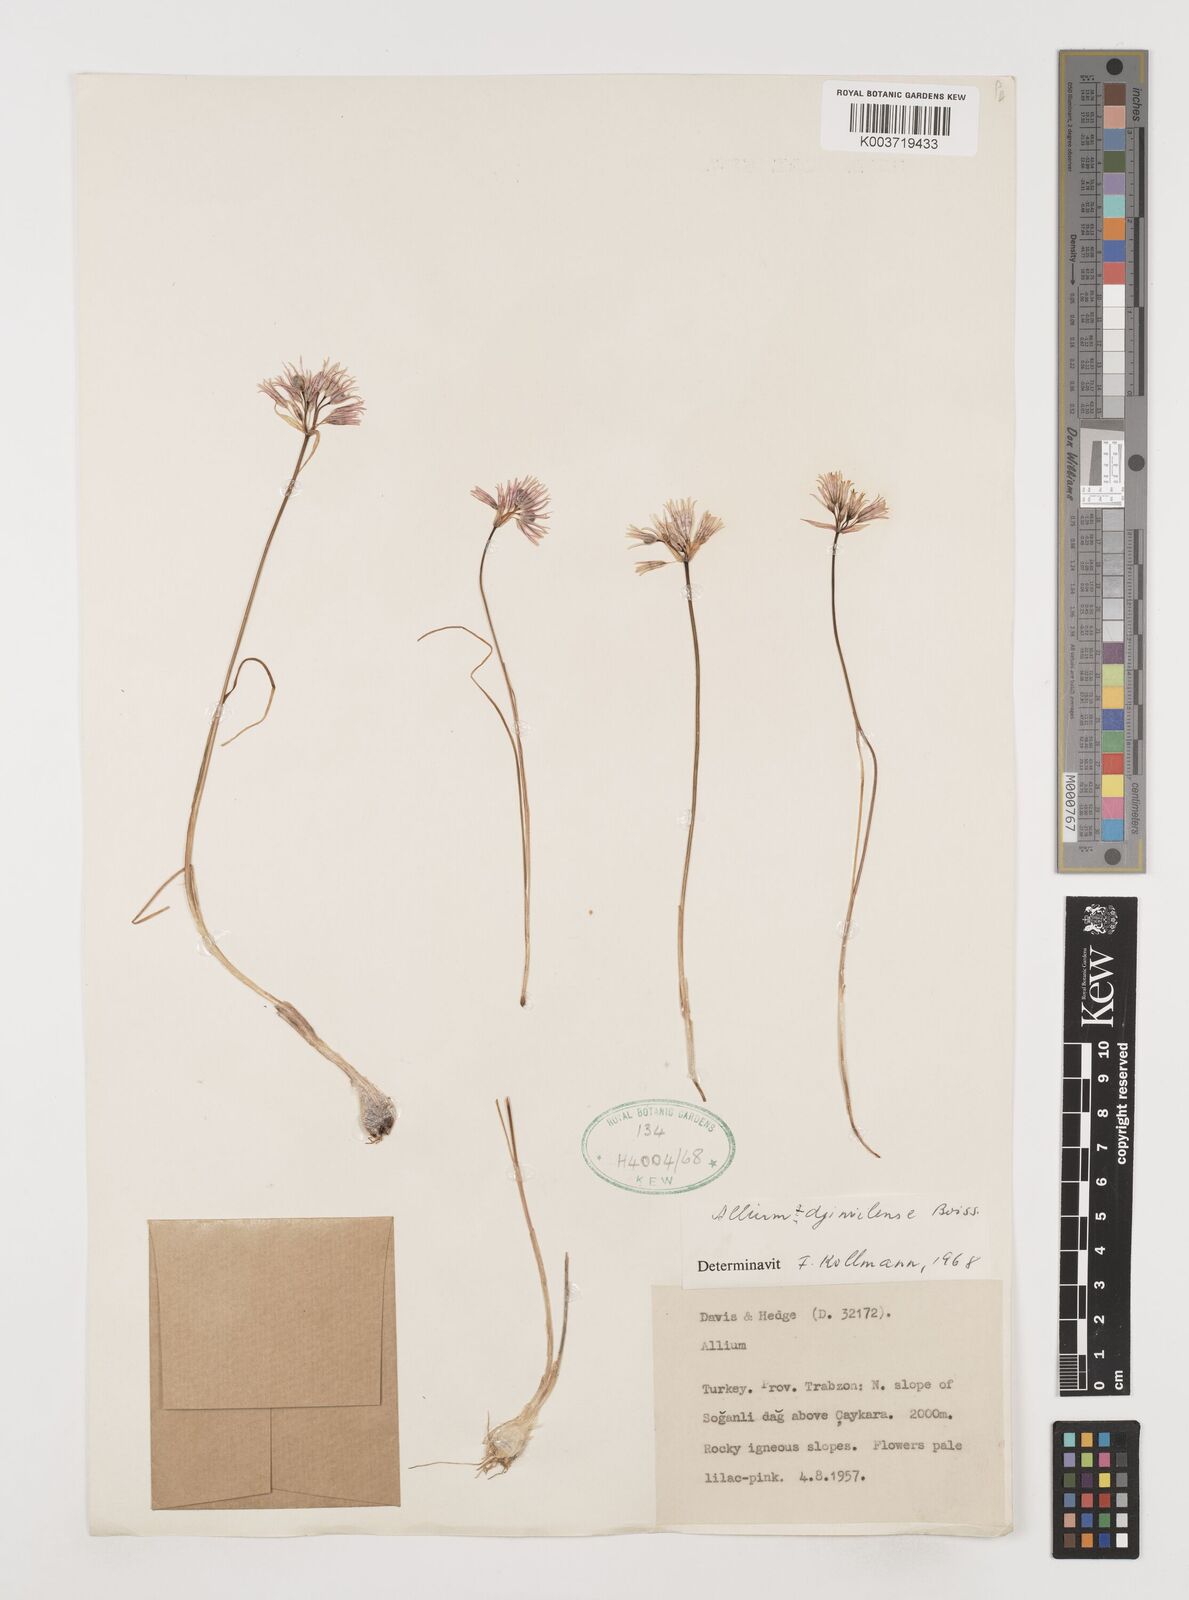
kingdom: Plantae
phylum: Tracheophyta
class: Liliopsida
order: Asparagales
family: Amaryllidaceae
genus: Allium
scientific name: Allium djimilense
